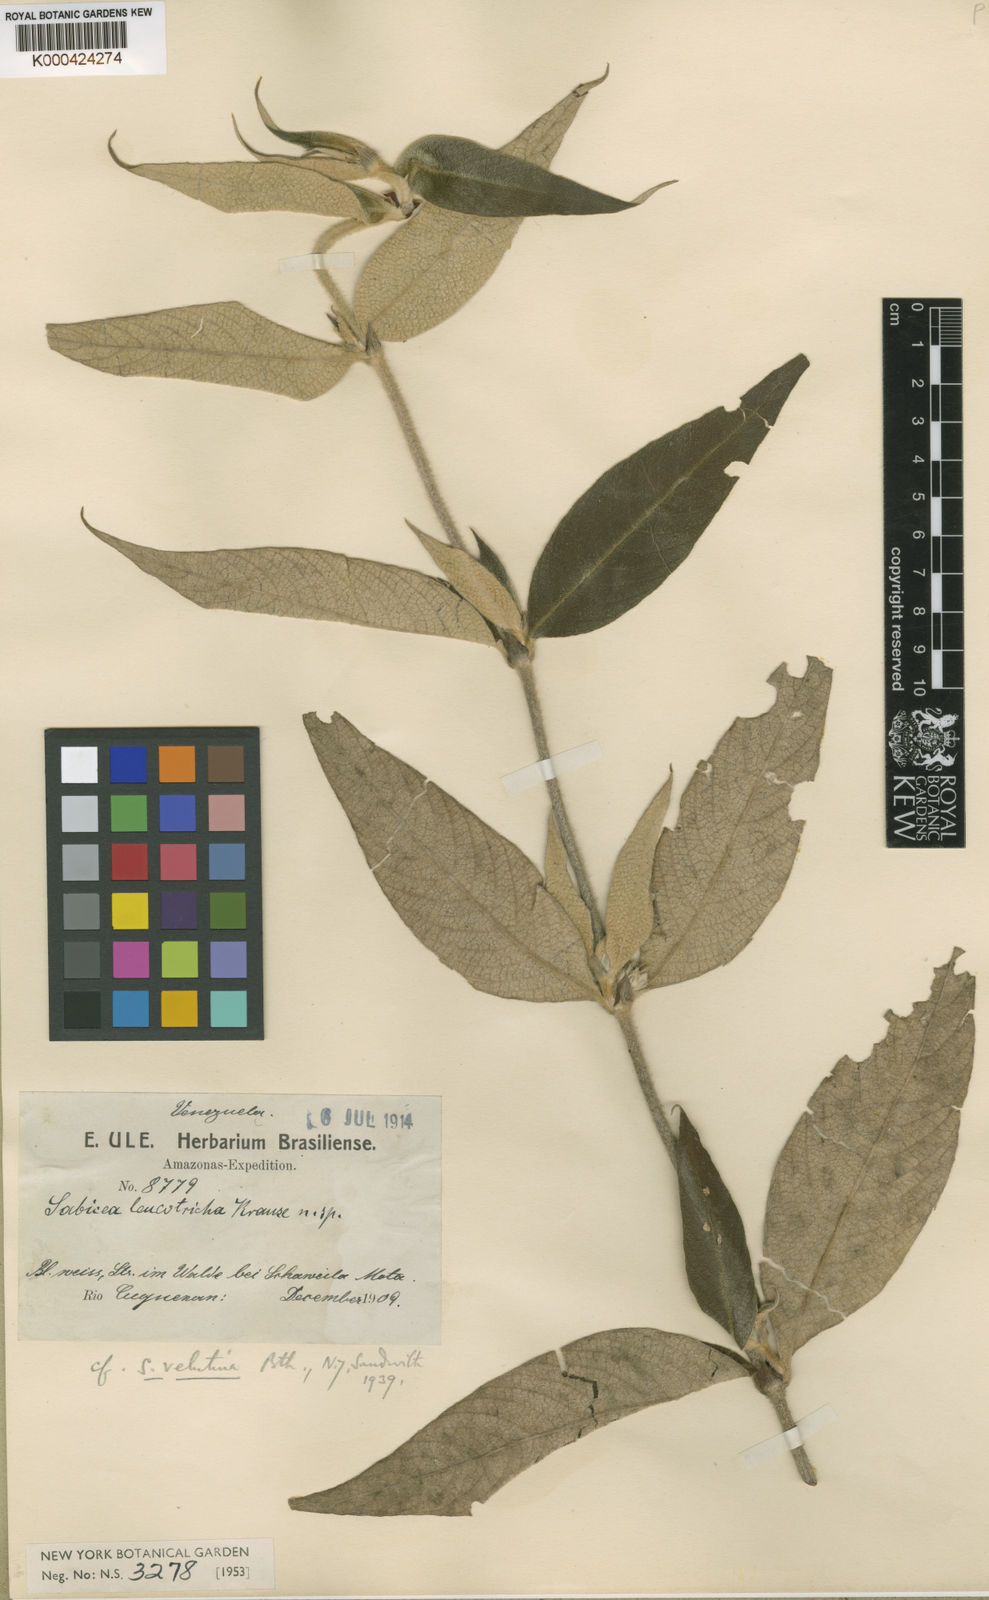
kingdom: Plantae
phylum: Tracheophyta
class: Magnoliopsida
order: Gentianales
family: Rubiaceae
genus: Sabicea
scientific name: Sabicea velutina
